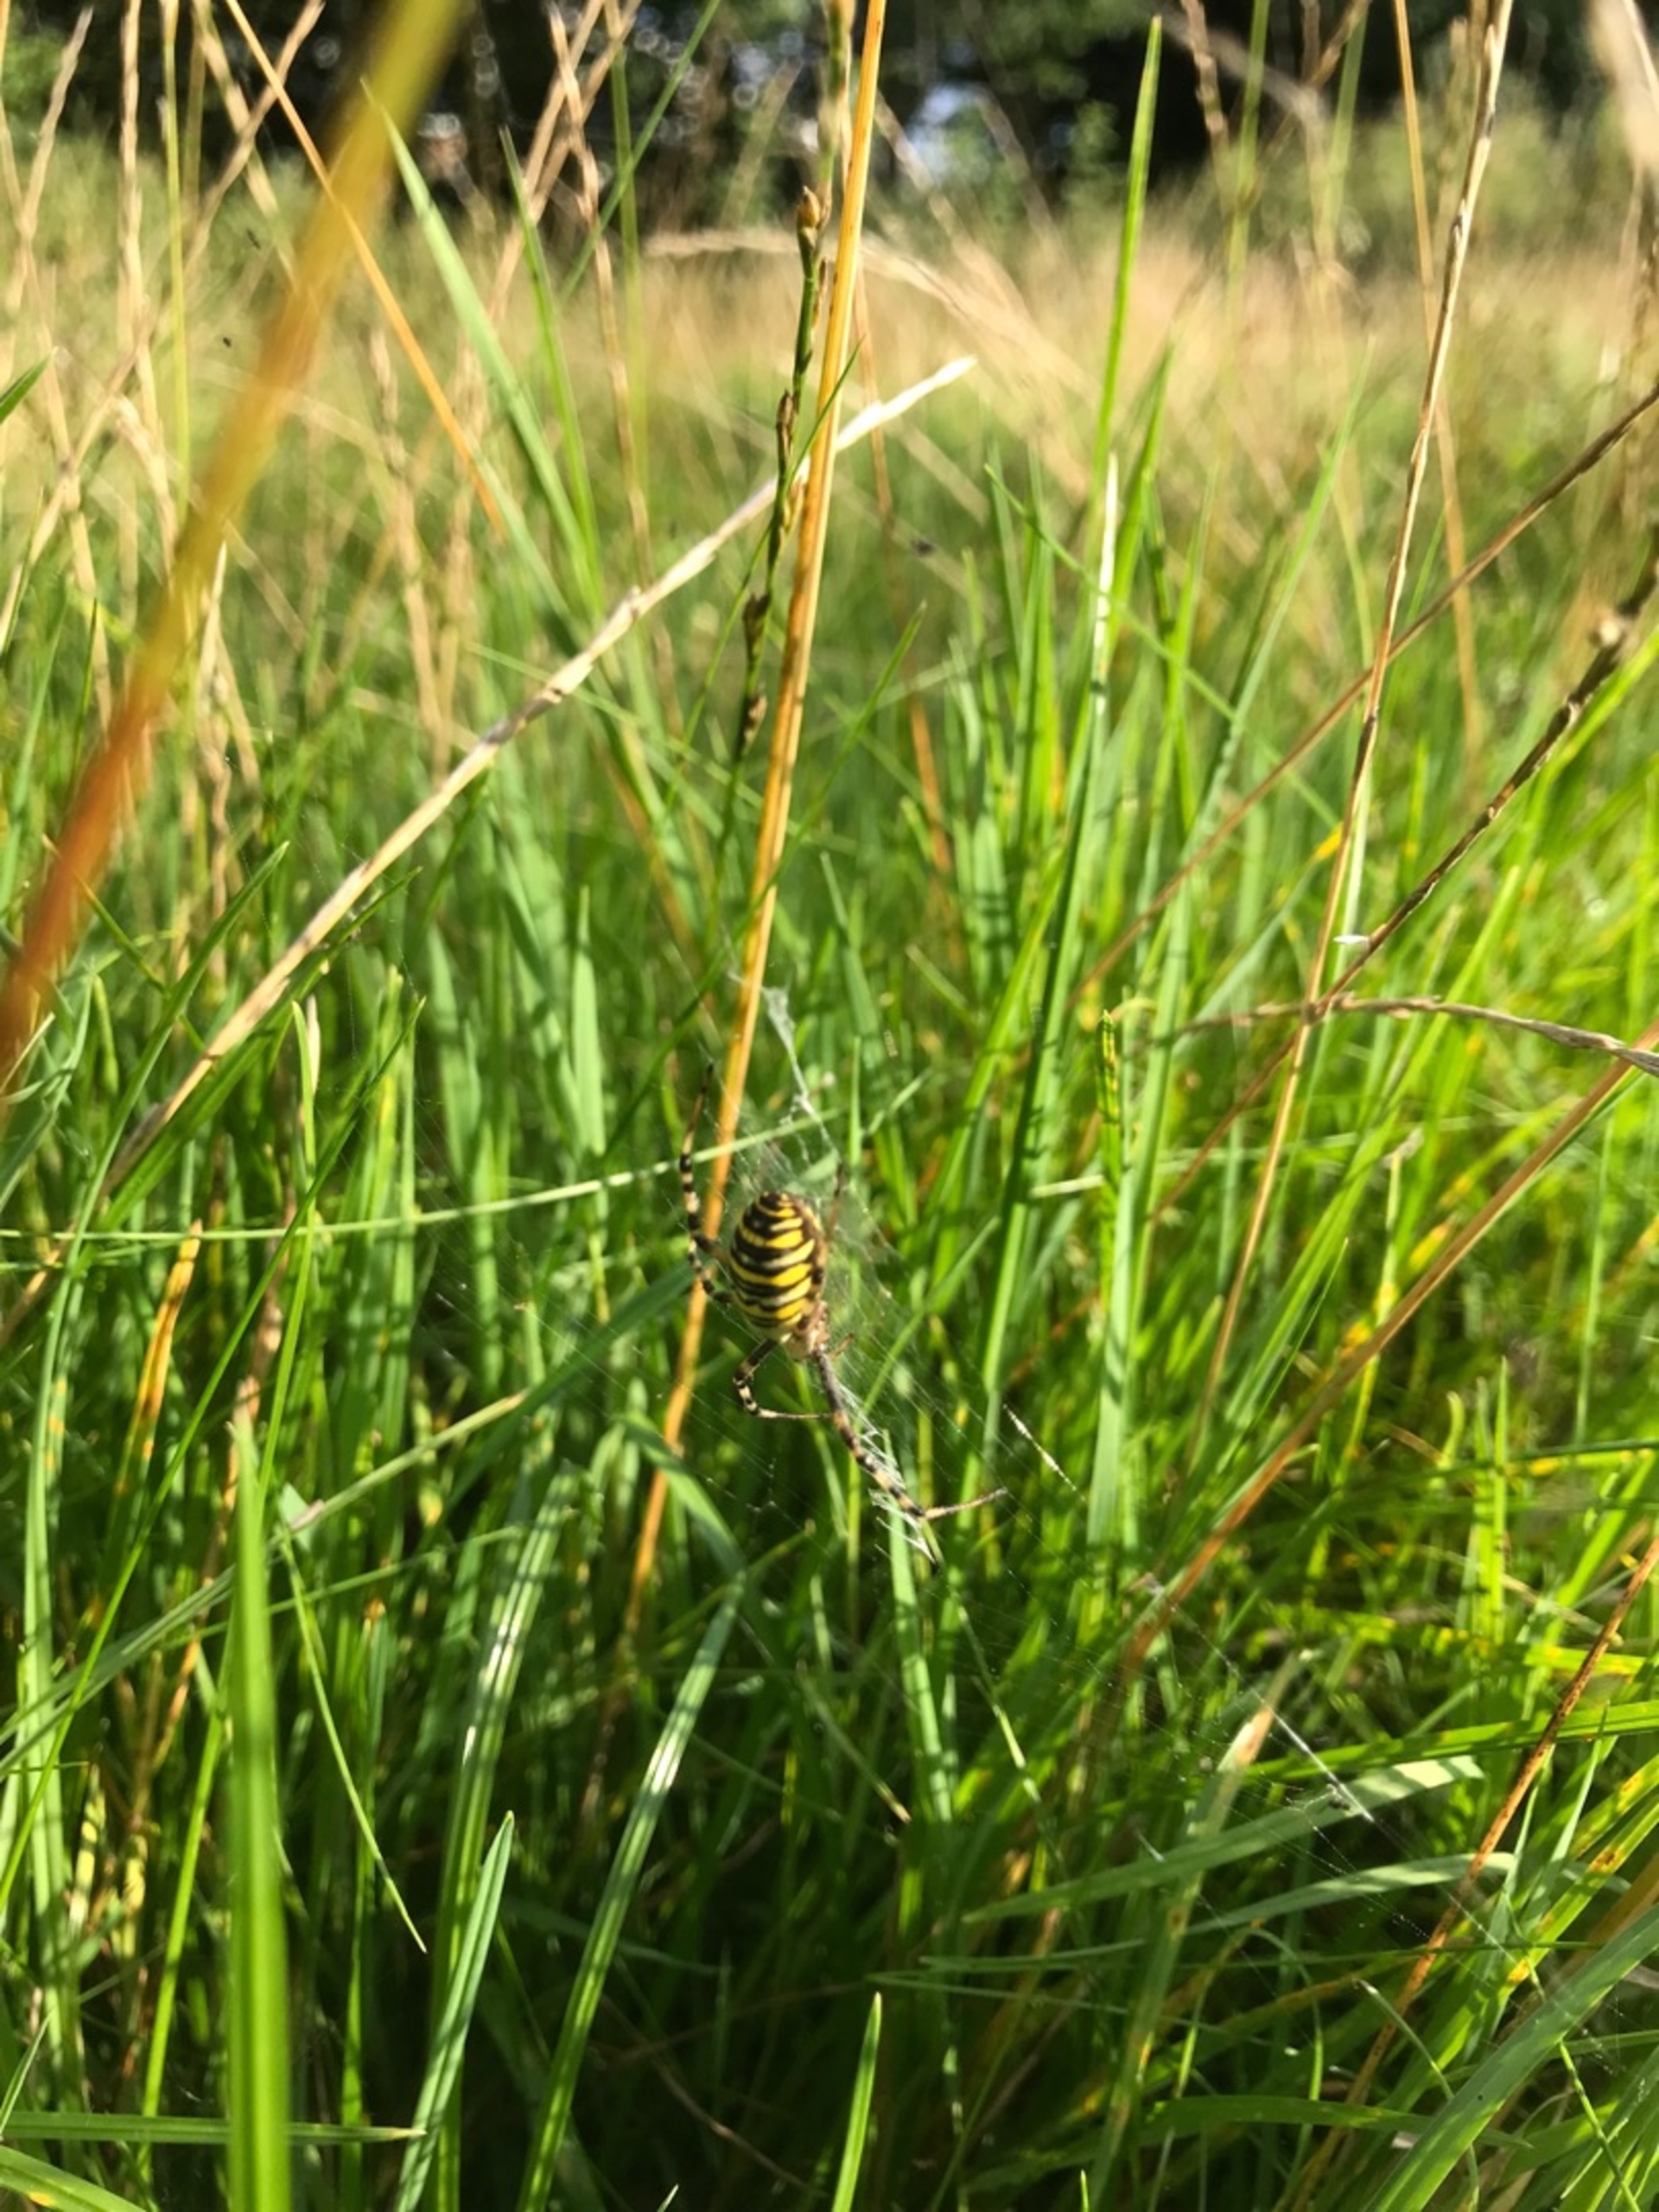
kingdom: Animalia
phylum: Arthropoda
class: Arachnida
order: Araneae
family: Araneidae
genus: Argiope
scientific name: Argiope bruennichi
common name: Hvepseedderkop
